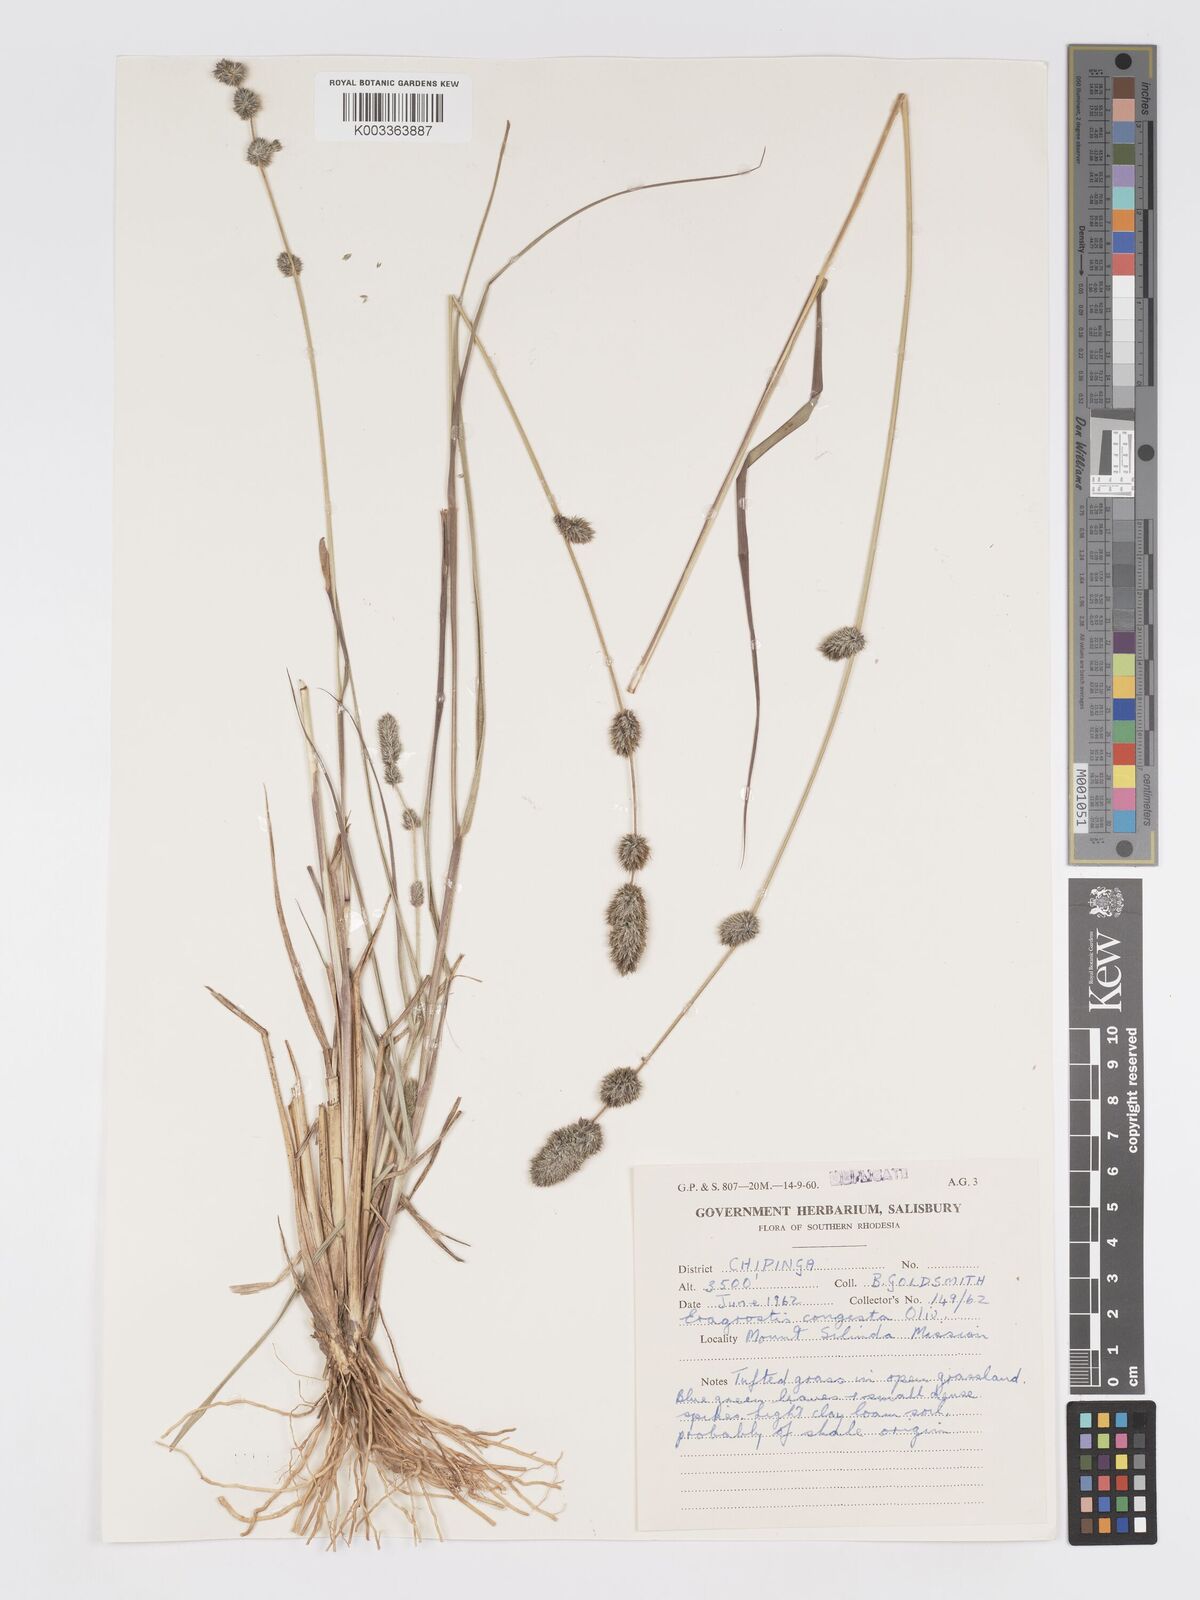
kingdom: Plantae
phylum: Tracheophyta
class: Liliopsida
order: Poales
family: Poaceae
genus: Eragrostis
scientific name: Eragrostis congesta
